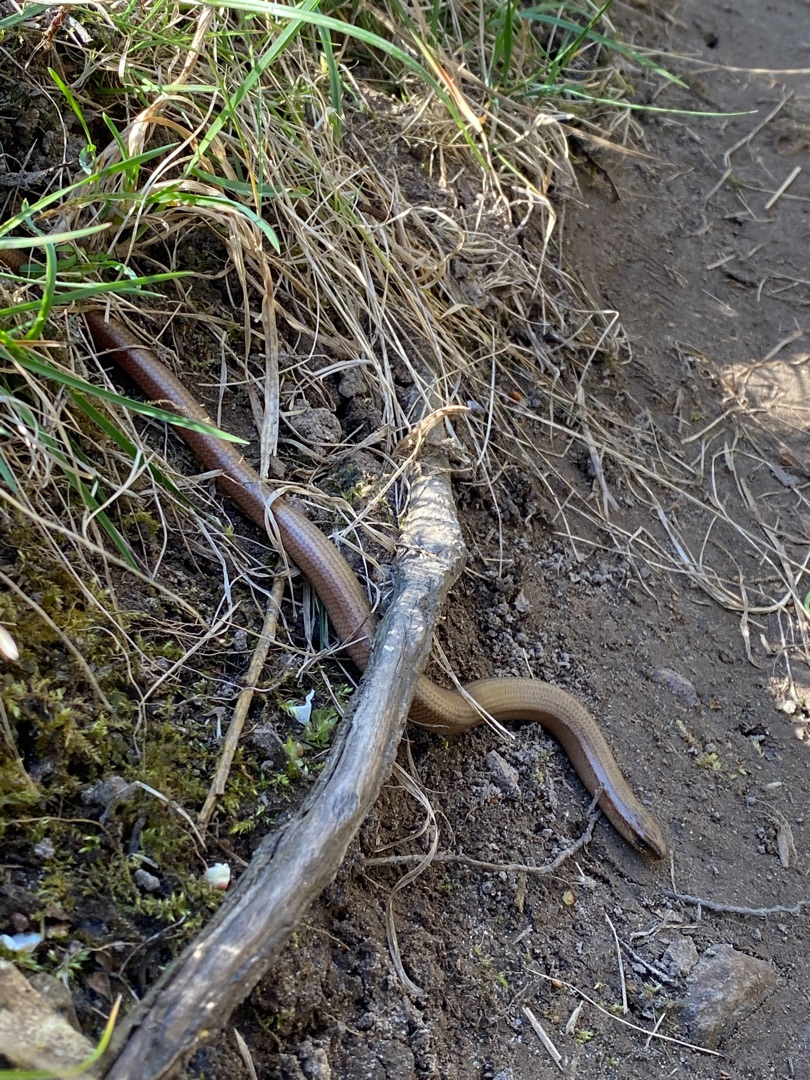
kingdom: Animalia
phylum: Chordata
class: Squamata
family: Anguidae
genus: Anguis
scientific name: Anguis fragilis
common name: Stålorm
